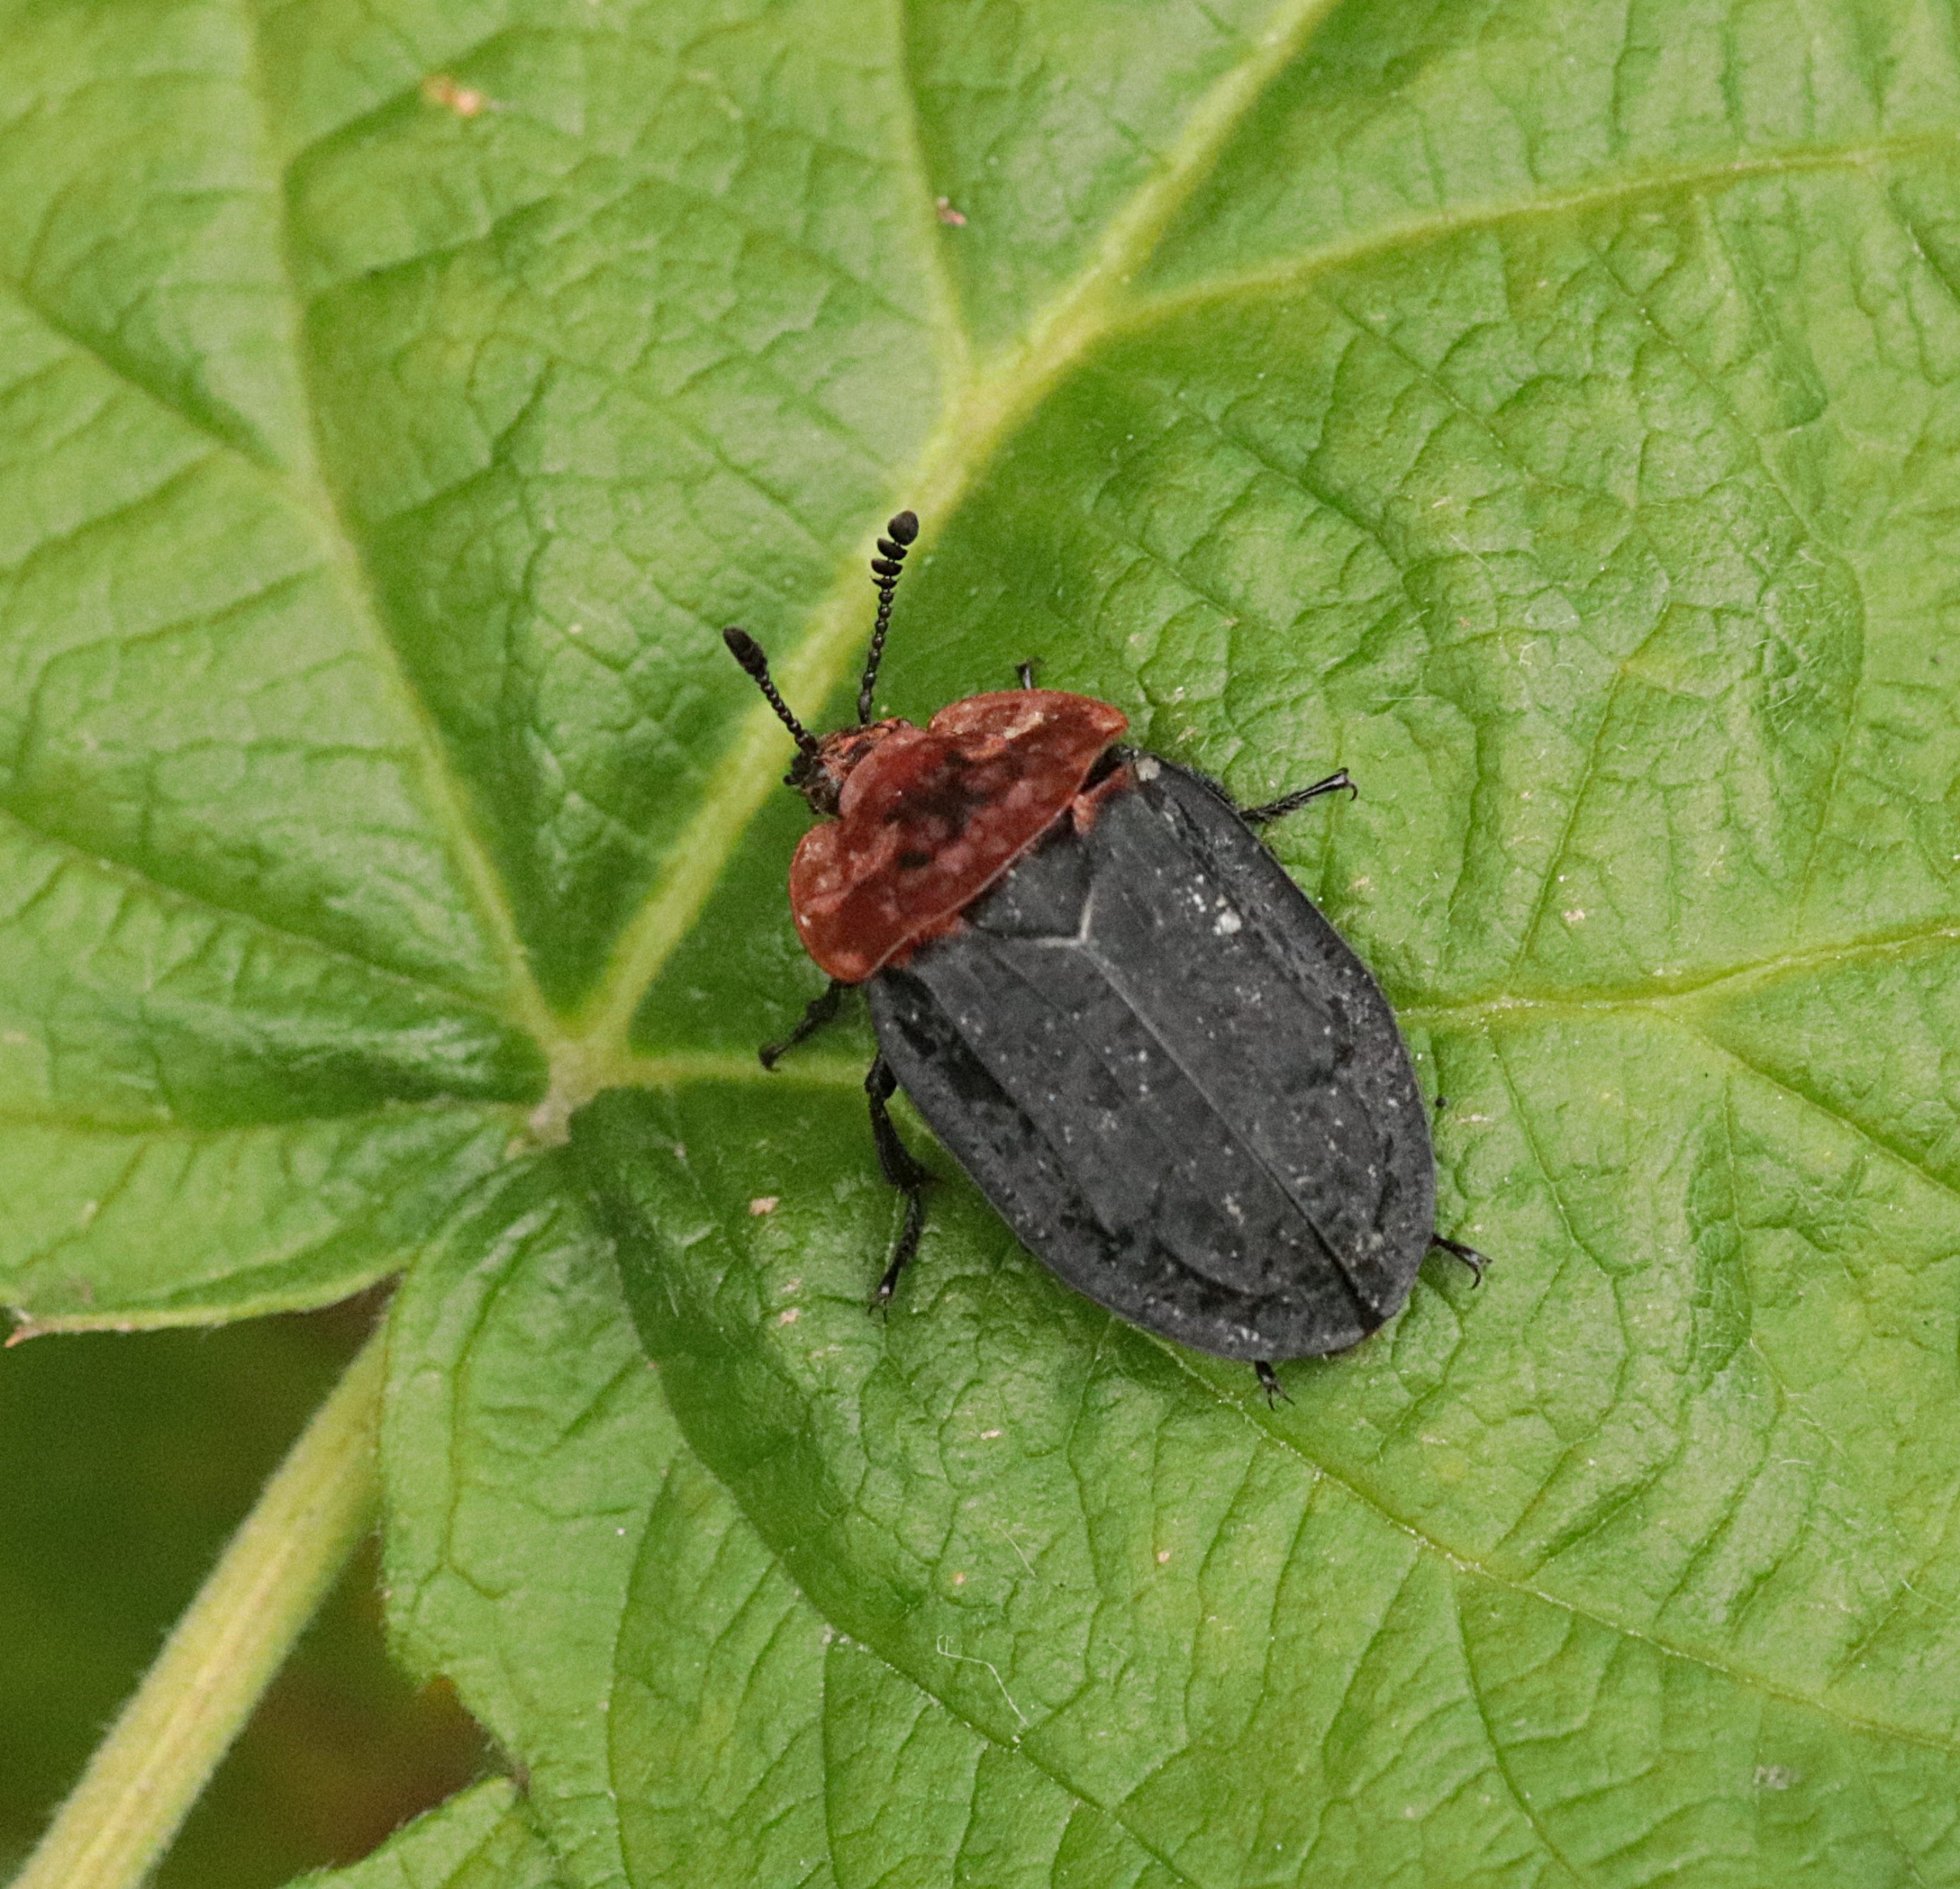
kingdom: Animalia
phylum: Arthropoda
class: Insecta
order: Coleoptera
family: Staphylinidae
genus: Oiceoptoma
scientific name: Oiceoptoma thoracicum
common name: Rødbrystet ådselbille
